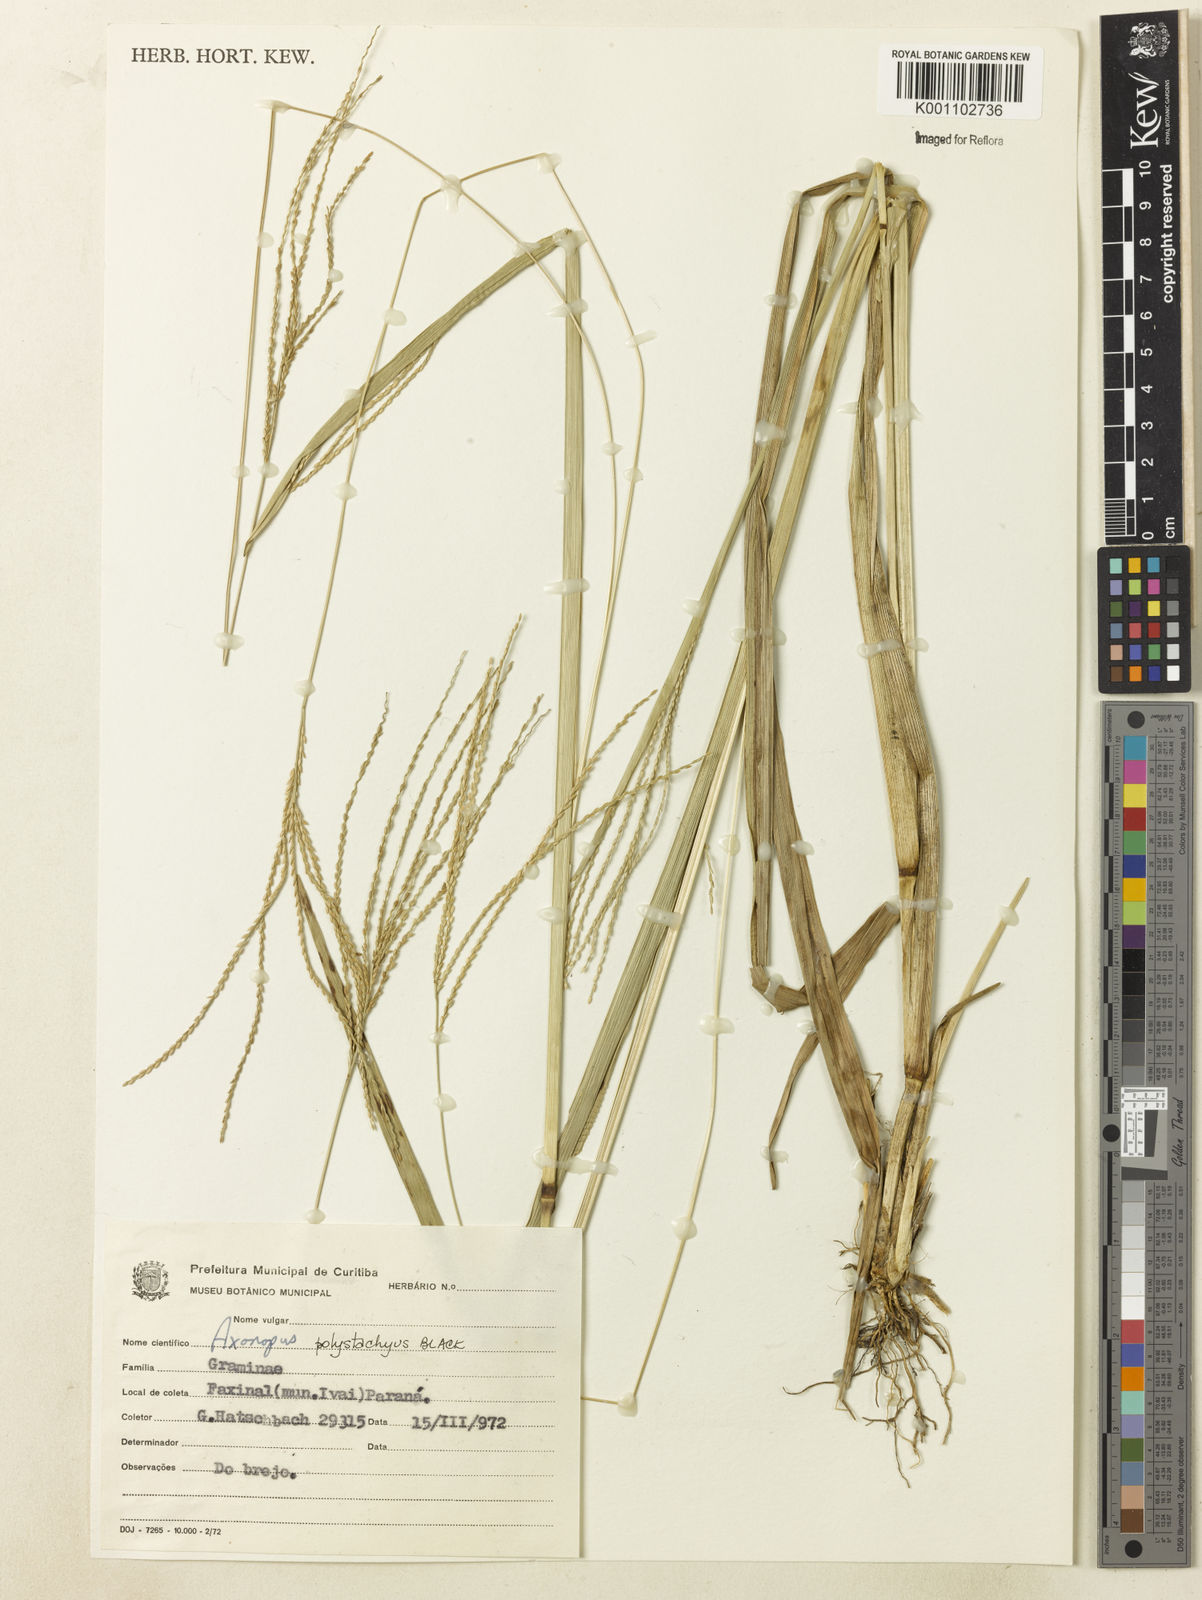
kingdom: Plantae
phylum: Tracheophyta
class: Liliopsida
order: Poales
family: Poaceae
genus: Axonopus
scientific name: Axonopus polystachyus
